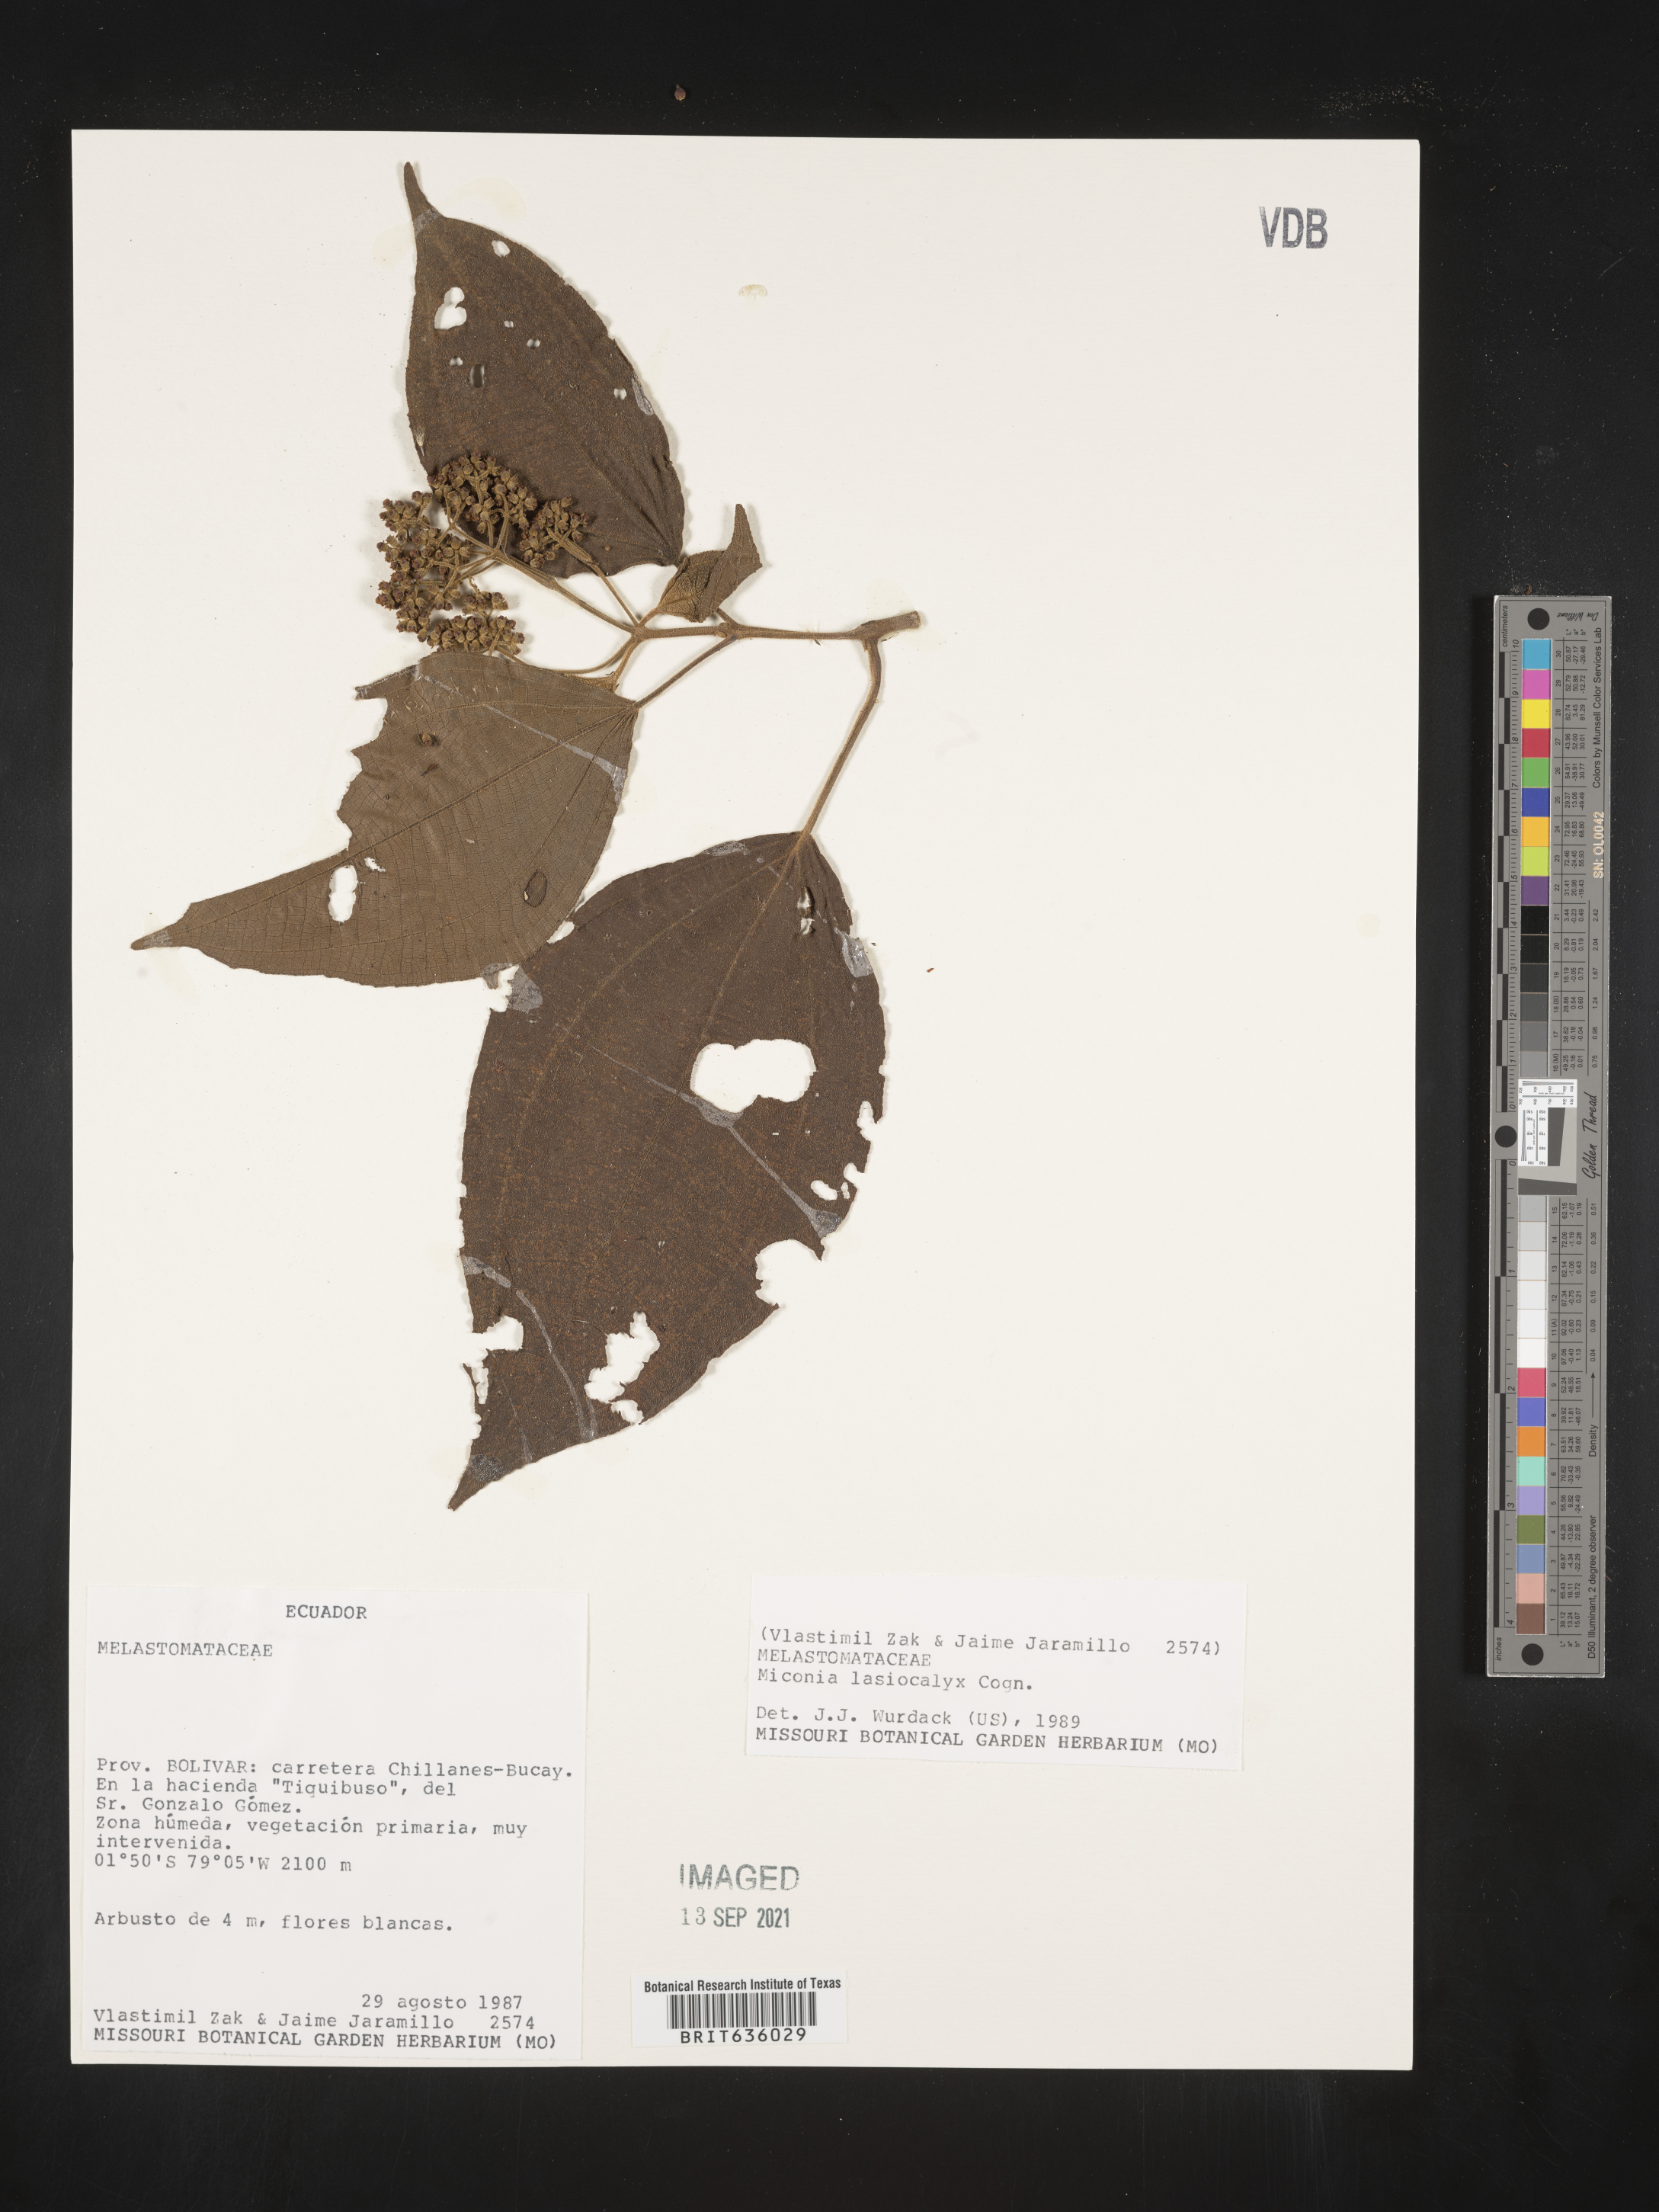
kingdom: Plantae
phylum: Tracheophyta
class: Magnoliopsida
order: Myrtales
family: Melastomataceae
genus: Miconia
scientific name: Miconia
